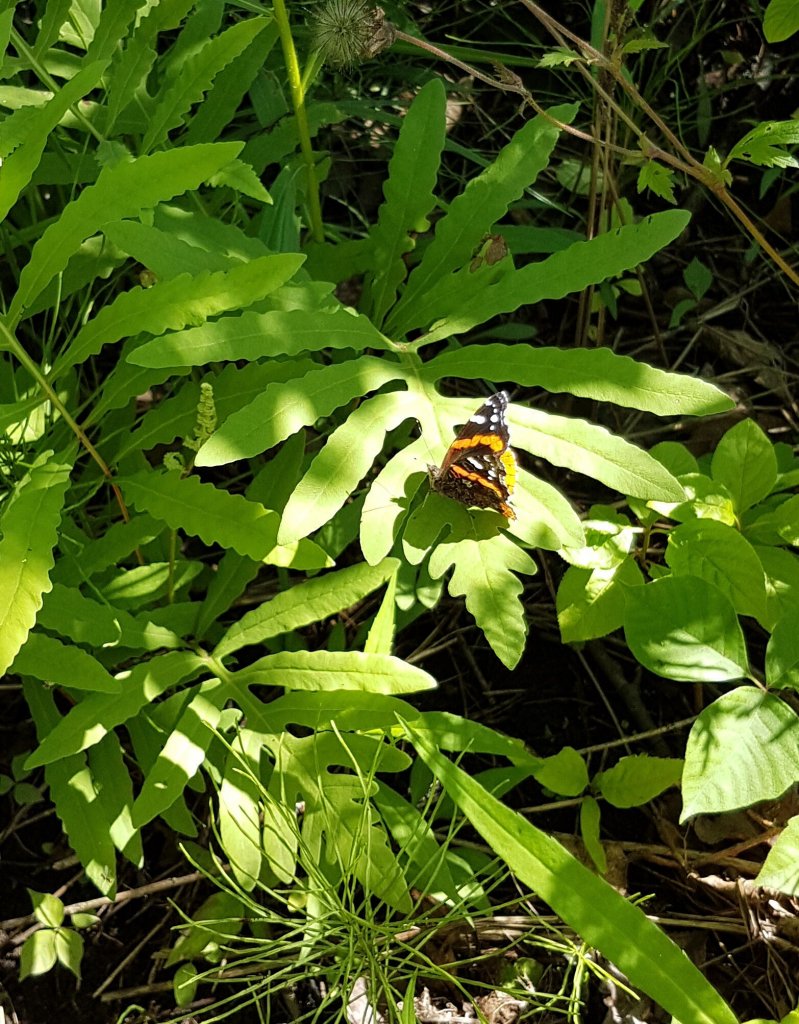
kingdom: Animalia
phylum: Arthropoda
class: Insecta
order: Lepidoptera
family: Nymphalidae
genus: Vanessa
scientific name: Vanessa atalanta
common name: Red Admiral
